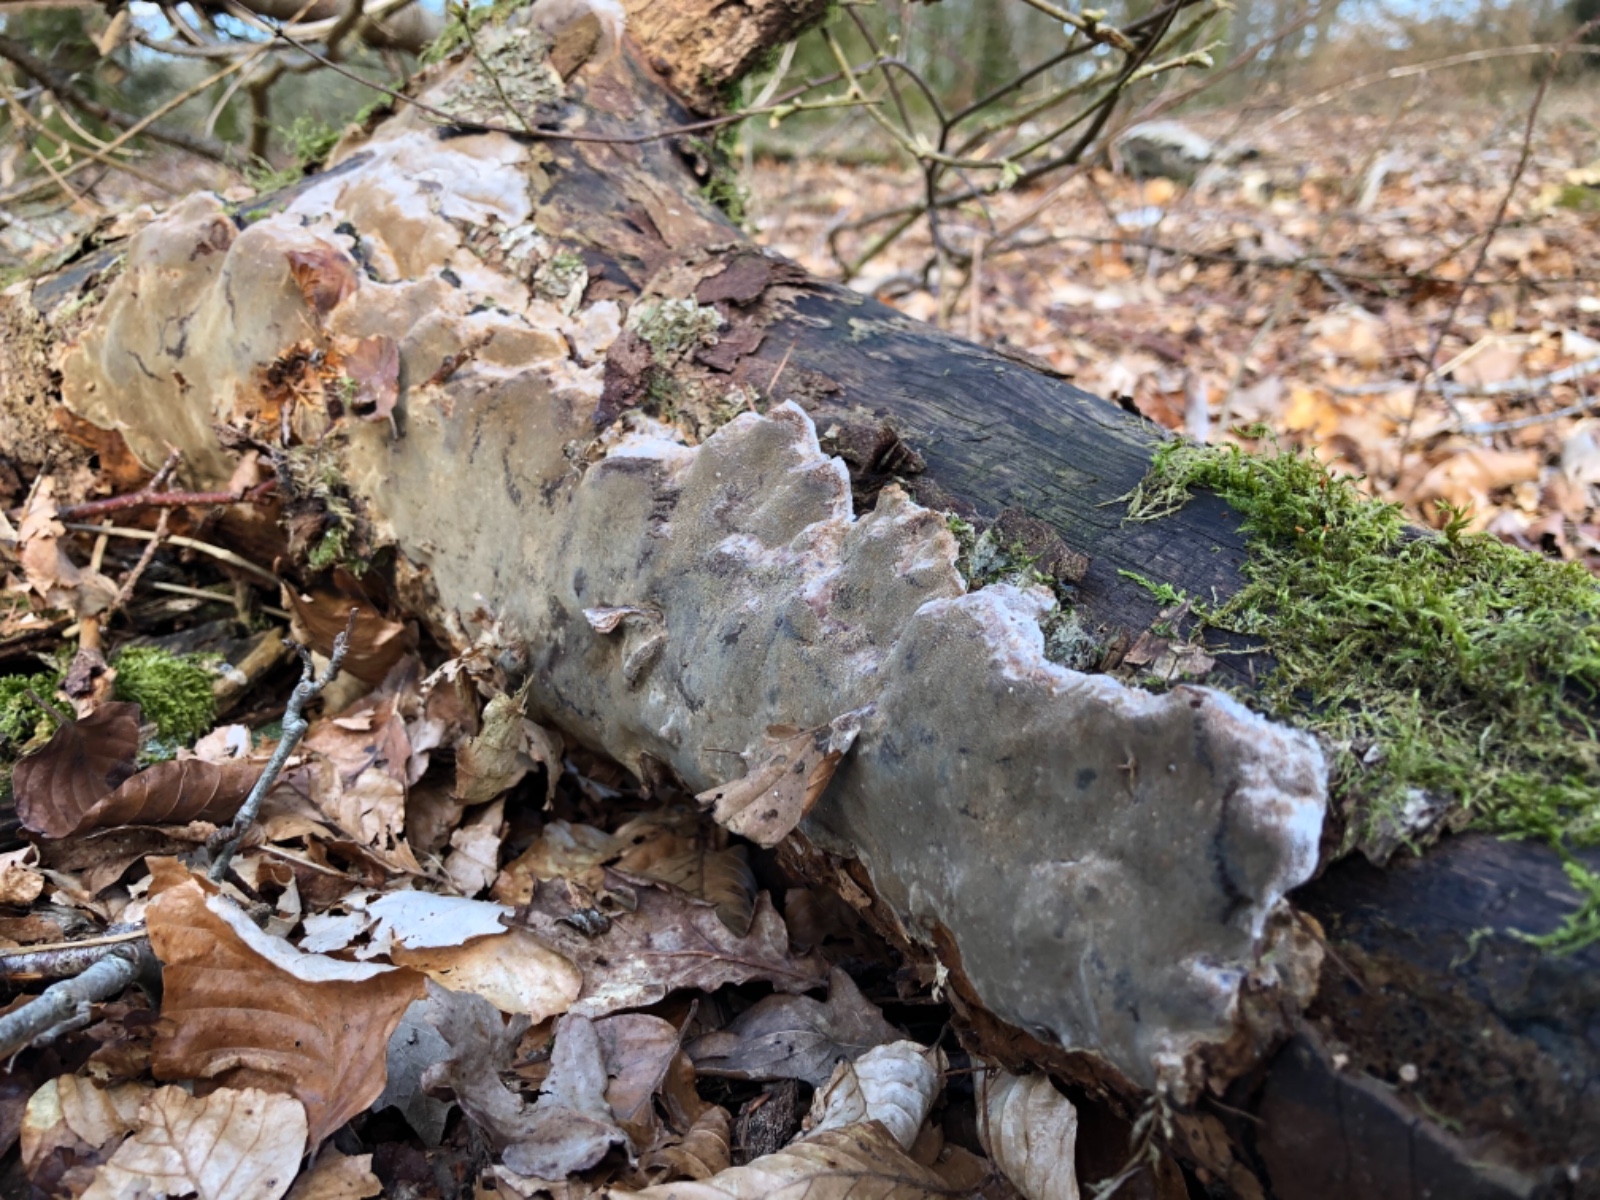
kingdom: Fungi
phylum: Basidiomycota
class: Agaricomycetes
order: Hymenochaetales
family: Hymenochaetaceae
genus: Phellinus
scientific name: Phellinus laevigatus
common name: glat ildporesvamp
